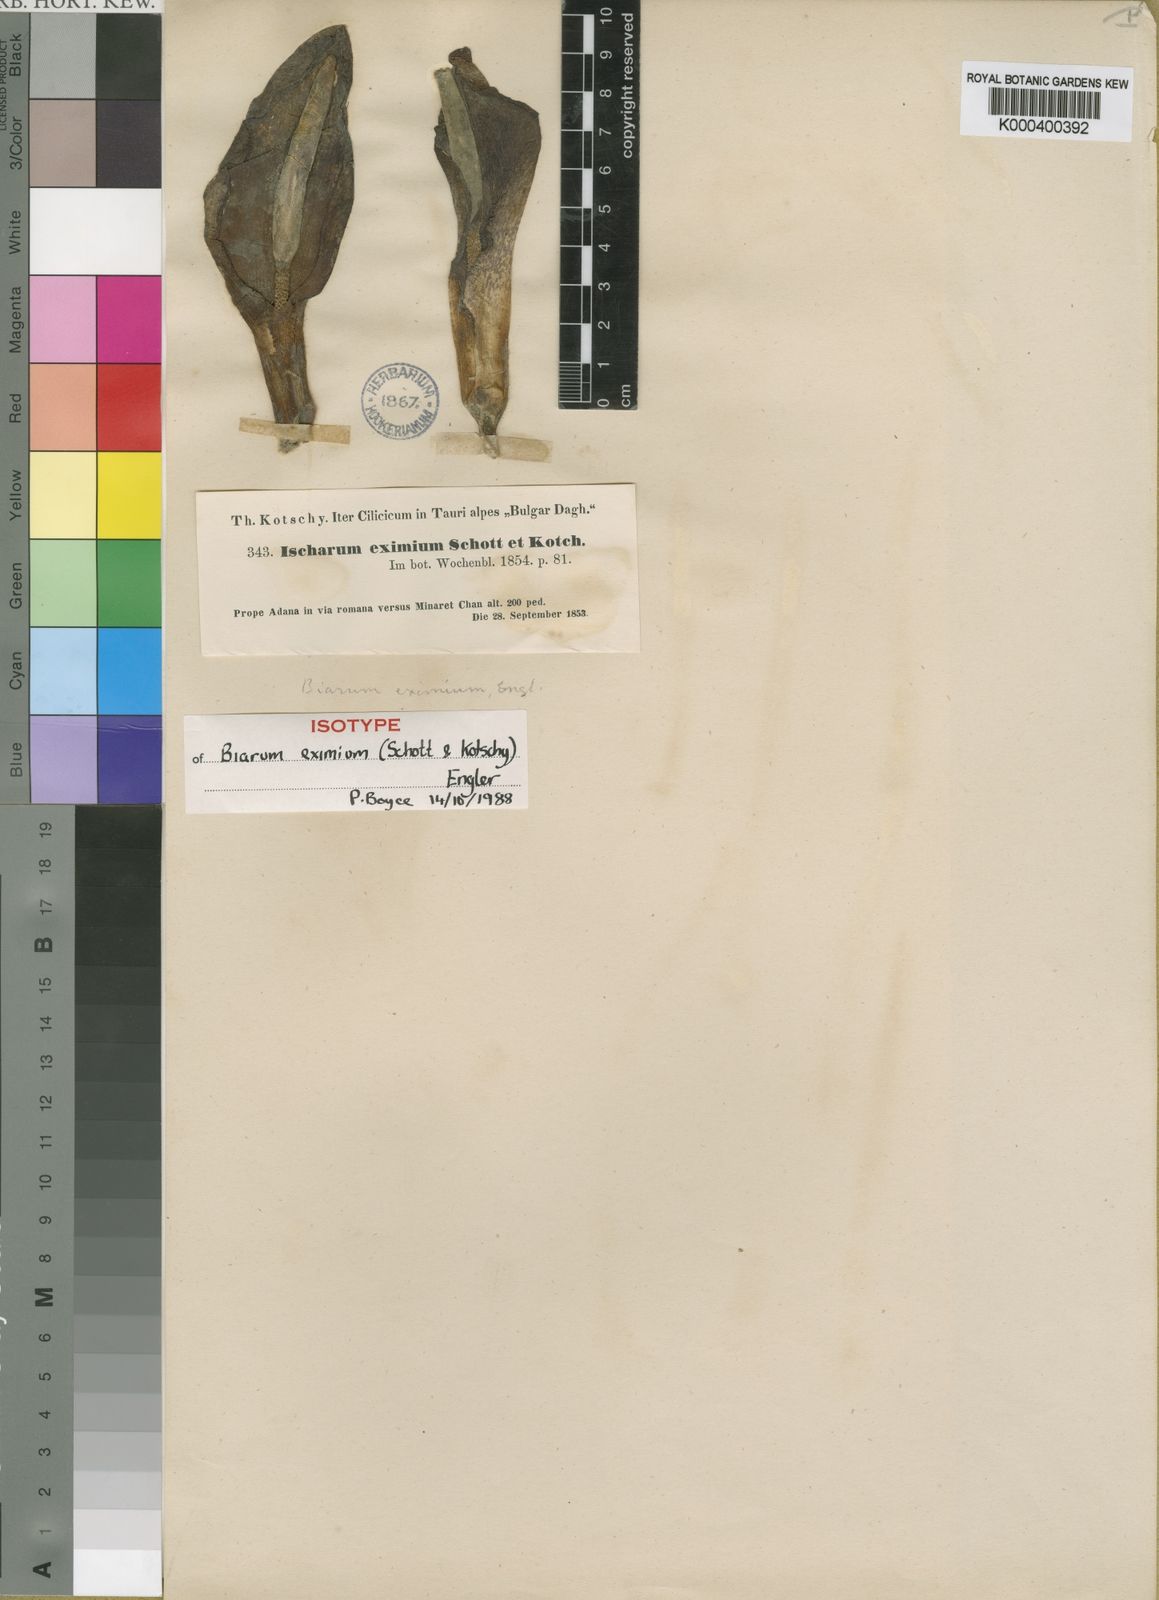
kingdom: Plantae
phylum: Tracheophyta
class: Liliopsida
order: Alismatales
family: Araceae
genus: Biarum
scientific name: Biarum eximium
